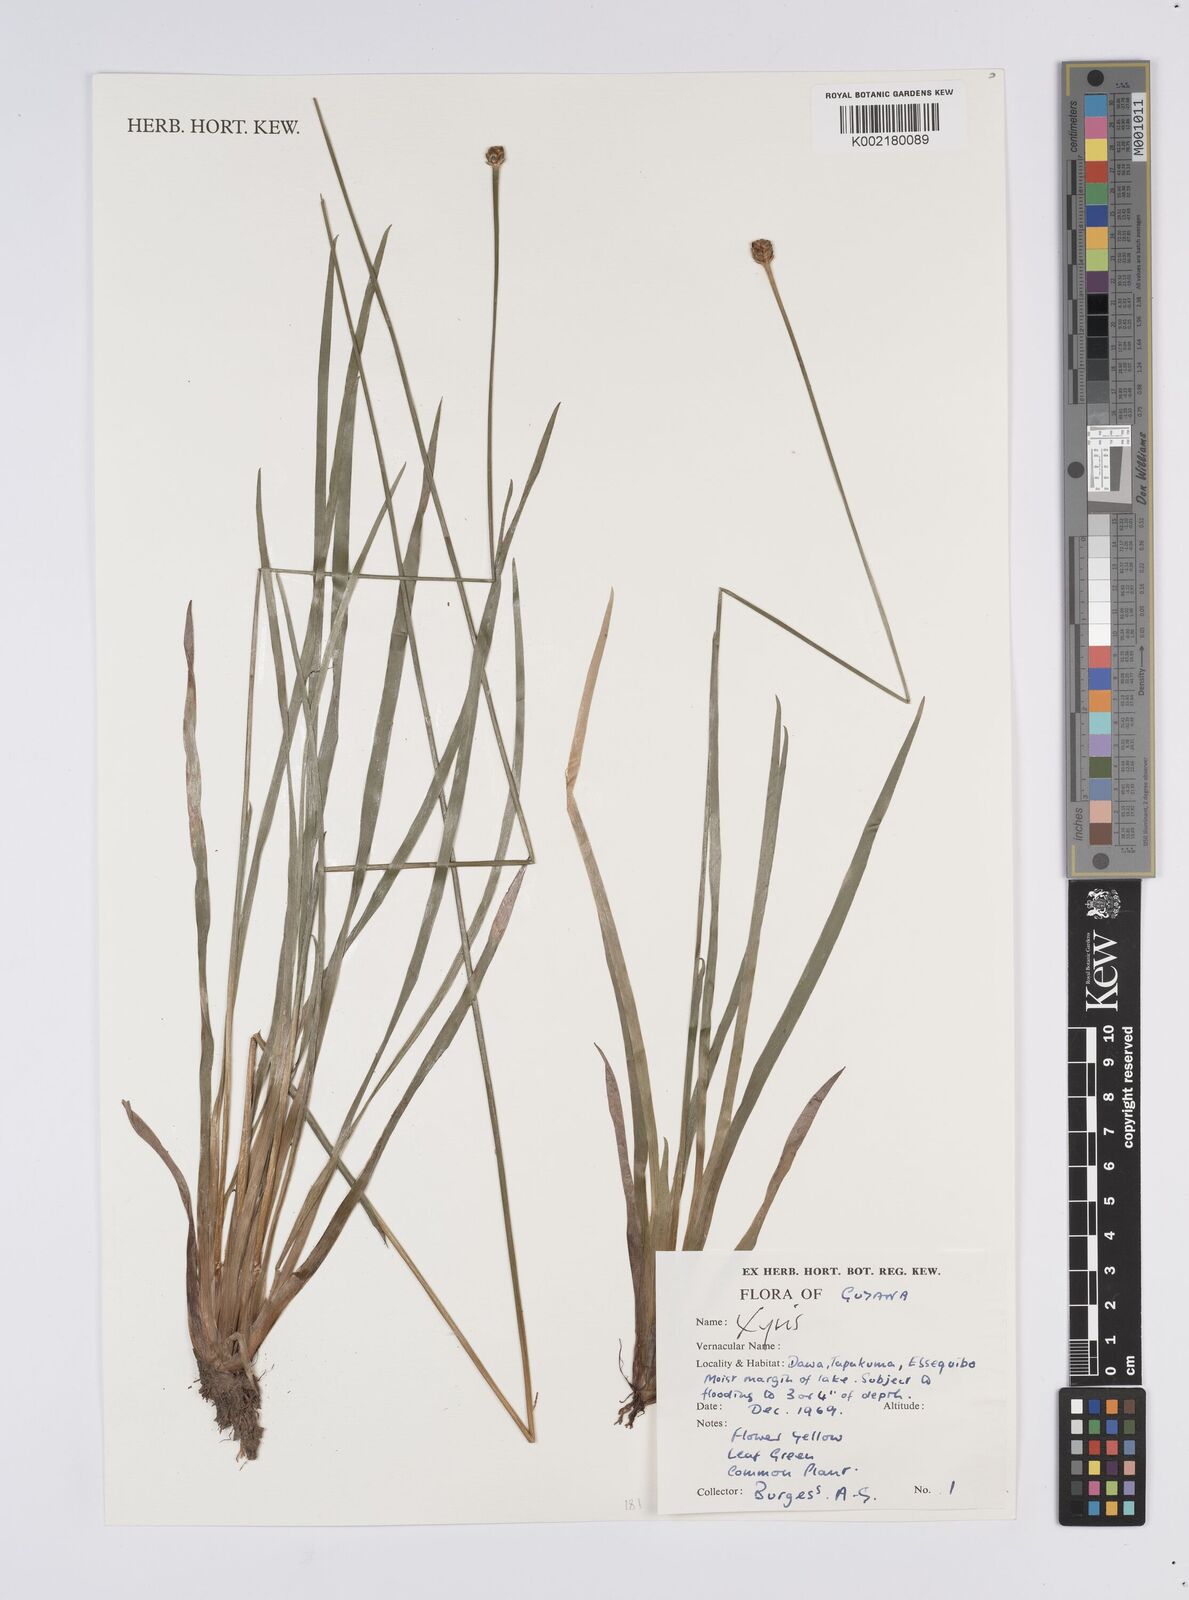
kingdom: Plantae
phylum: Tracheophyta
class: Liliopsida
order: Poales
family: Xyridaceae
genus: Xyris
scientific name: Xyris
